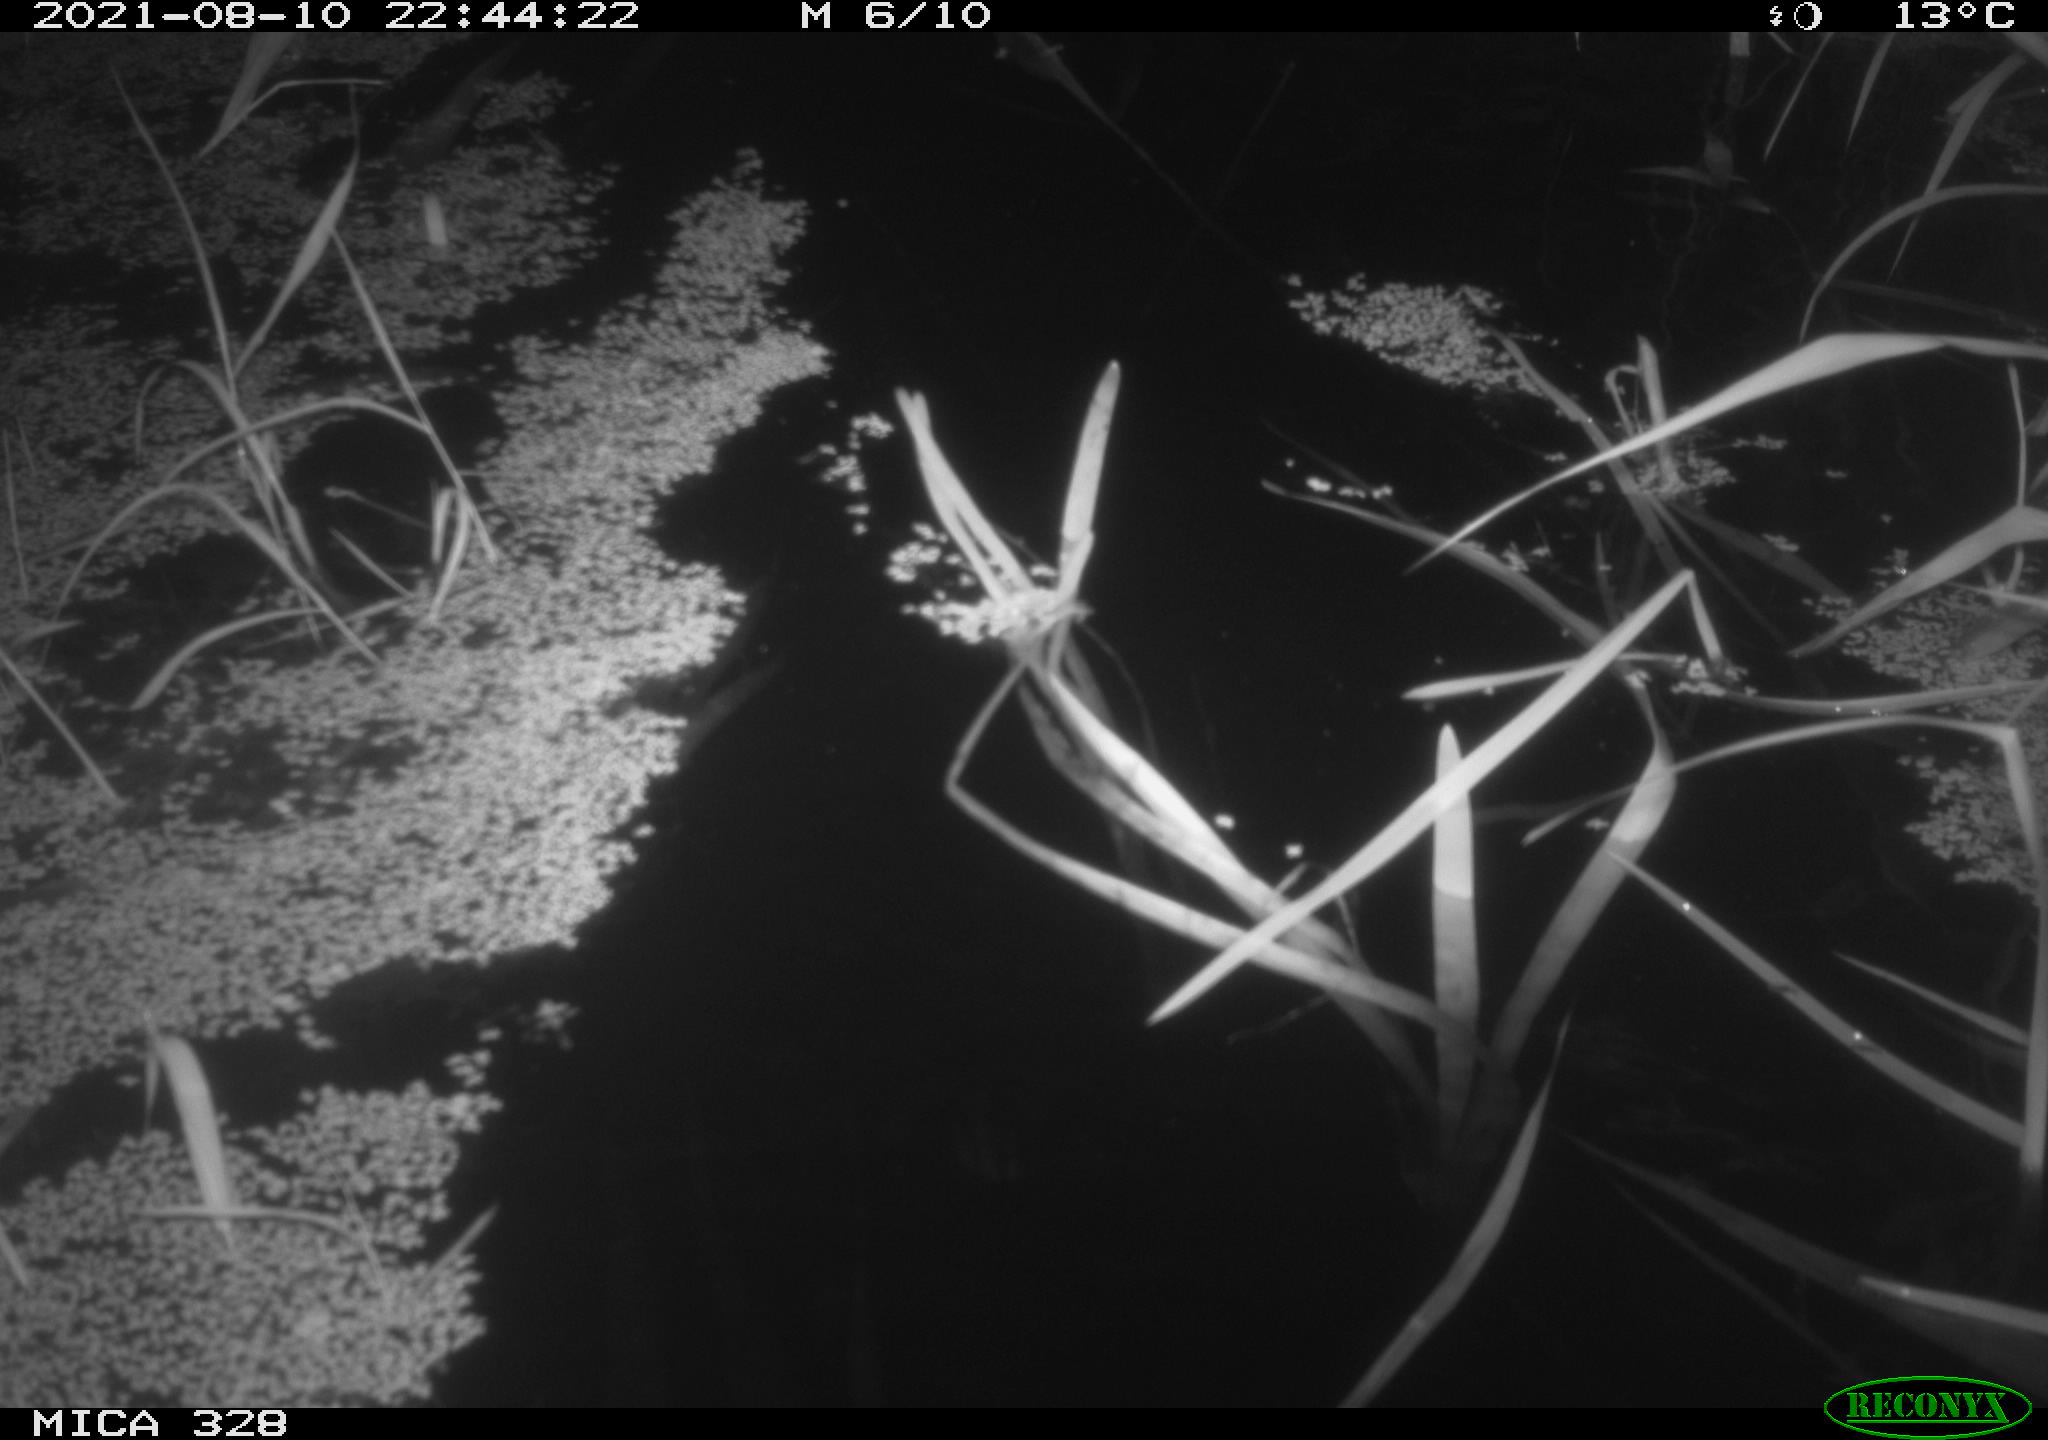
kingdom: Animalia
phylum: Chordata
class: Mammalia
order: Rodentia
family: Cricetidae
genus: Ondatra
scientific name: Ondatra zibethicus
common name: Muskrat
